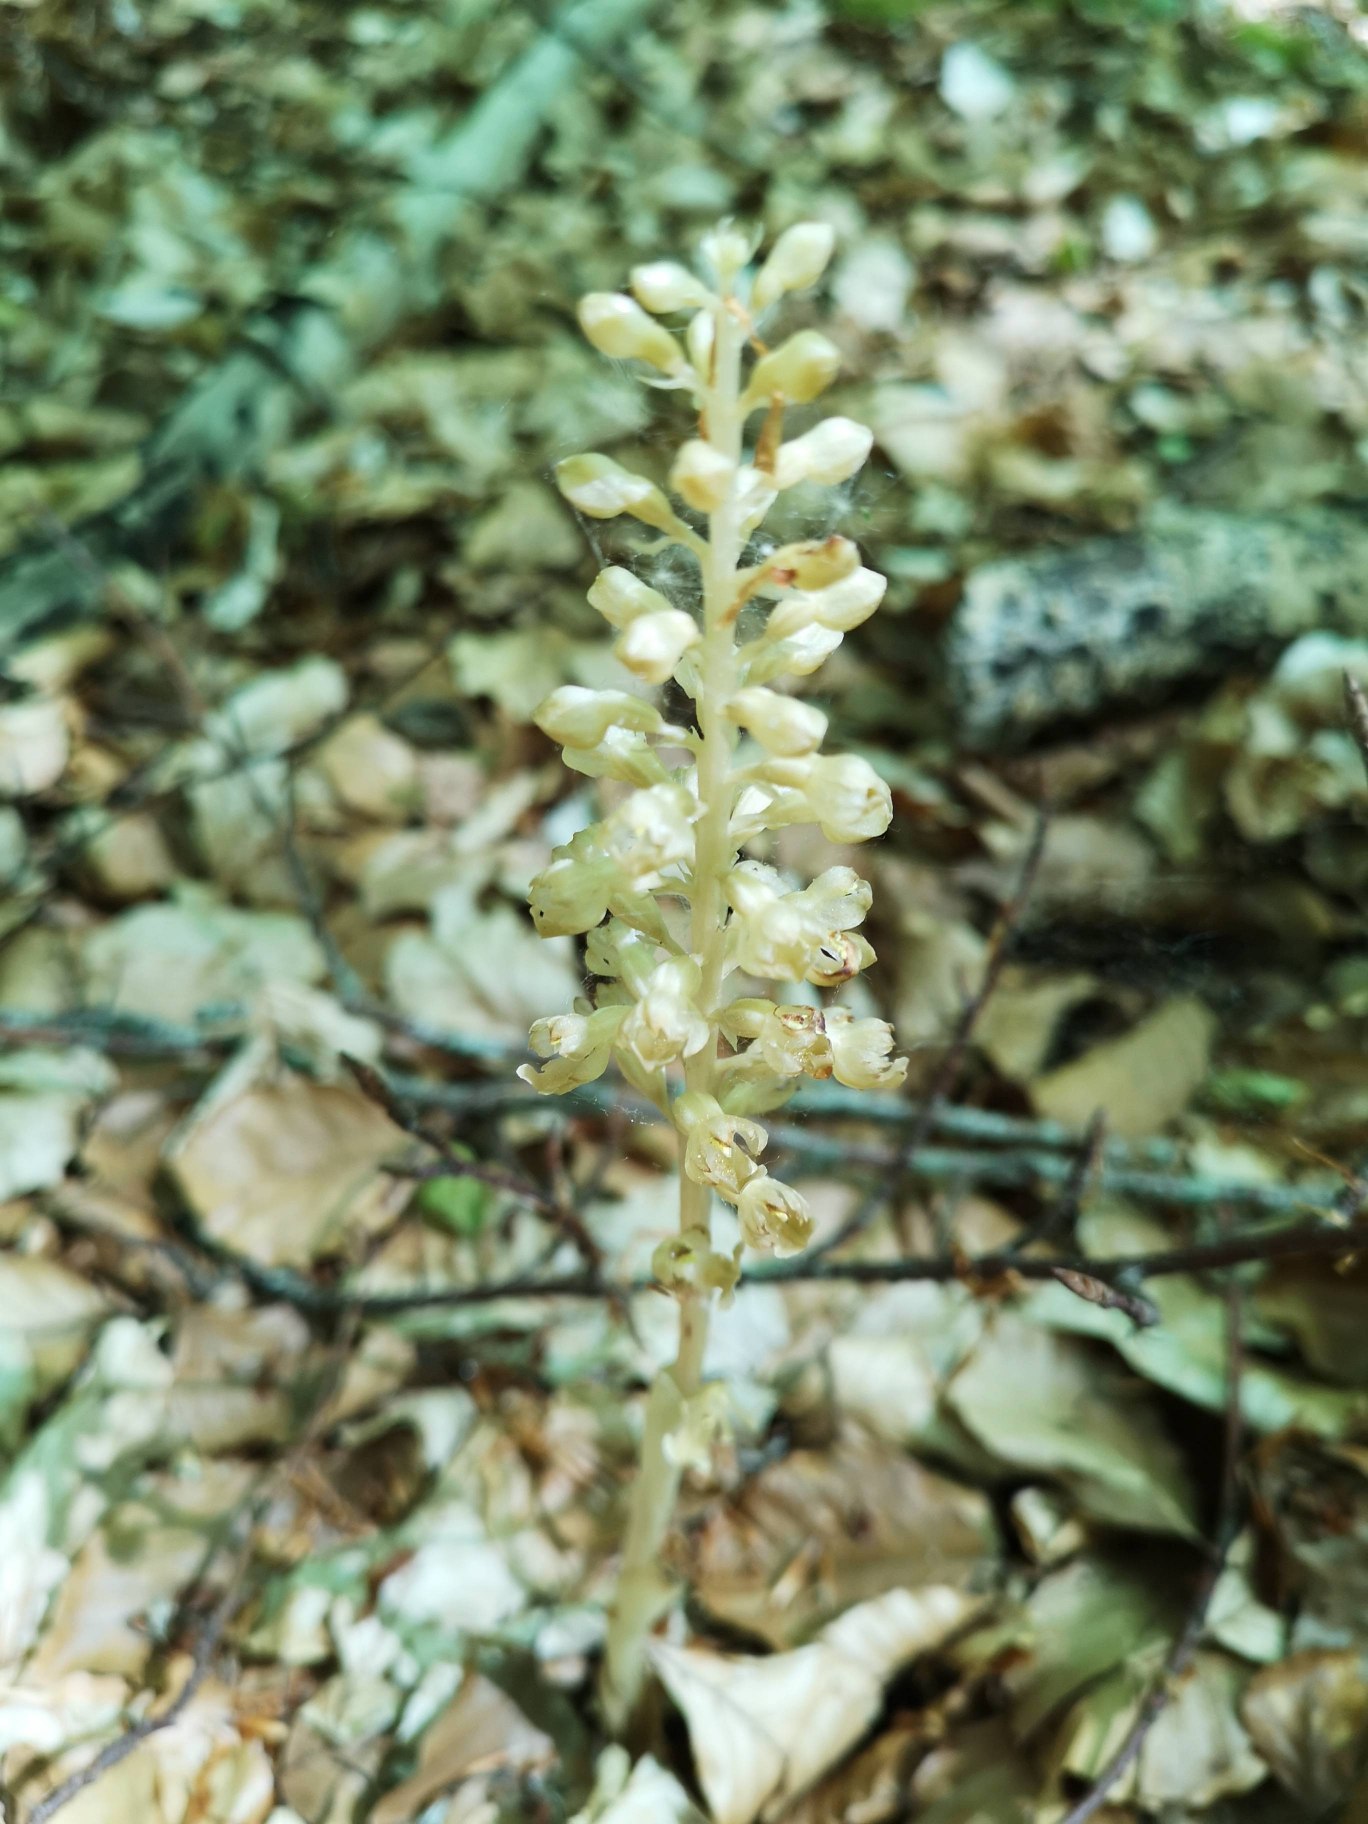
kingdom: Plantae
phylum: Tracheophyta
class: Liliopsida
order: Asparagales
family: Orchidaceae
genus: Neottia
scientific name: Neottia nidus-avis
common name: Rederod
